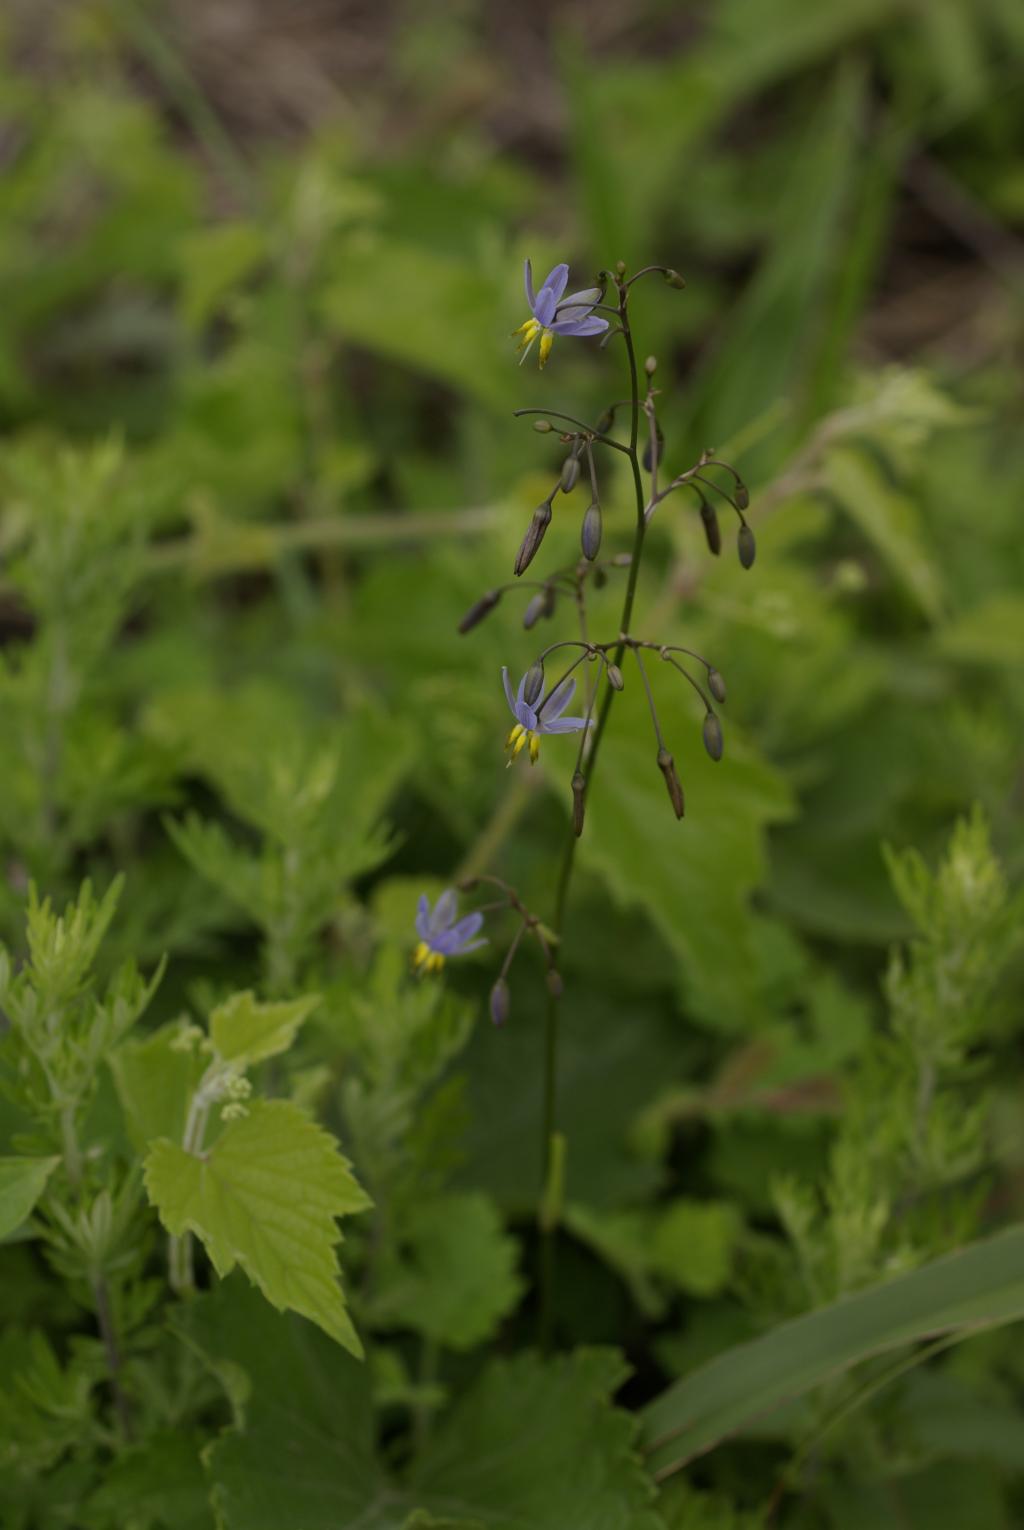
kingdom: Plantae
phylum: Tracheophyta
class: Liliopsida
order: Asparagales
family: Asphodelaceae
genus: Dianella
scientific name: Dianella ensifolia
